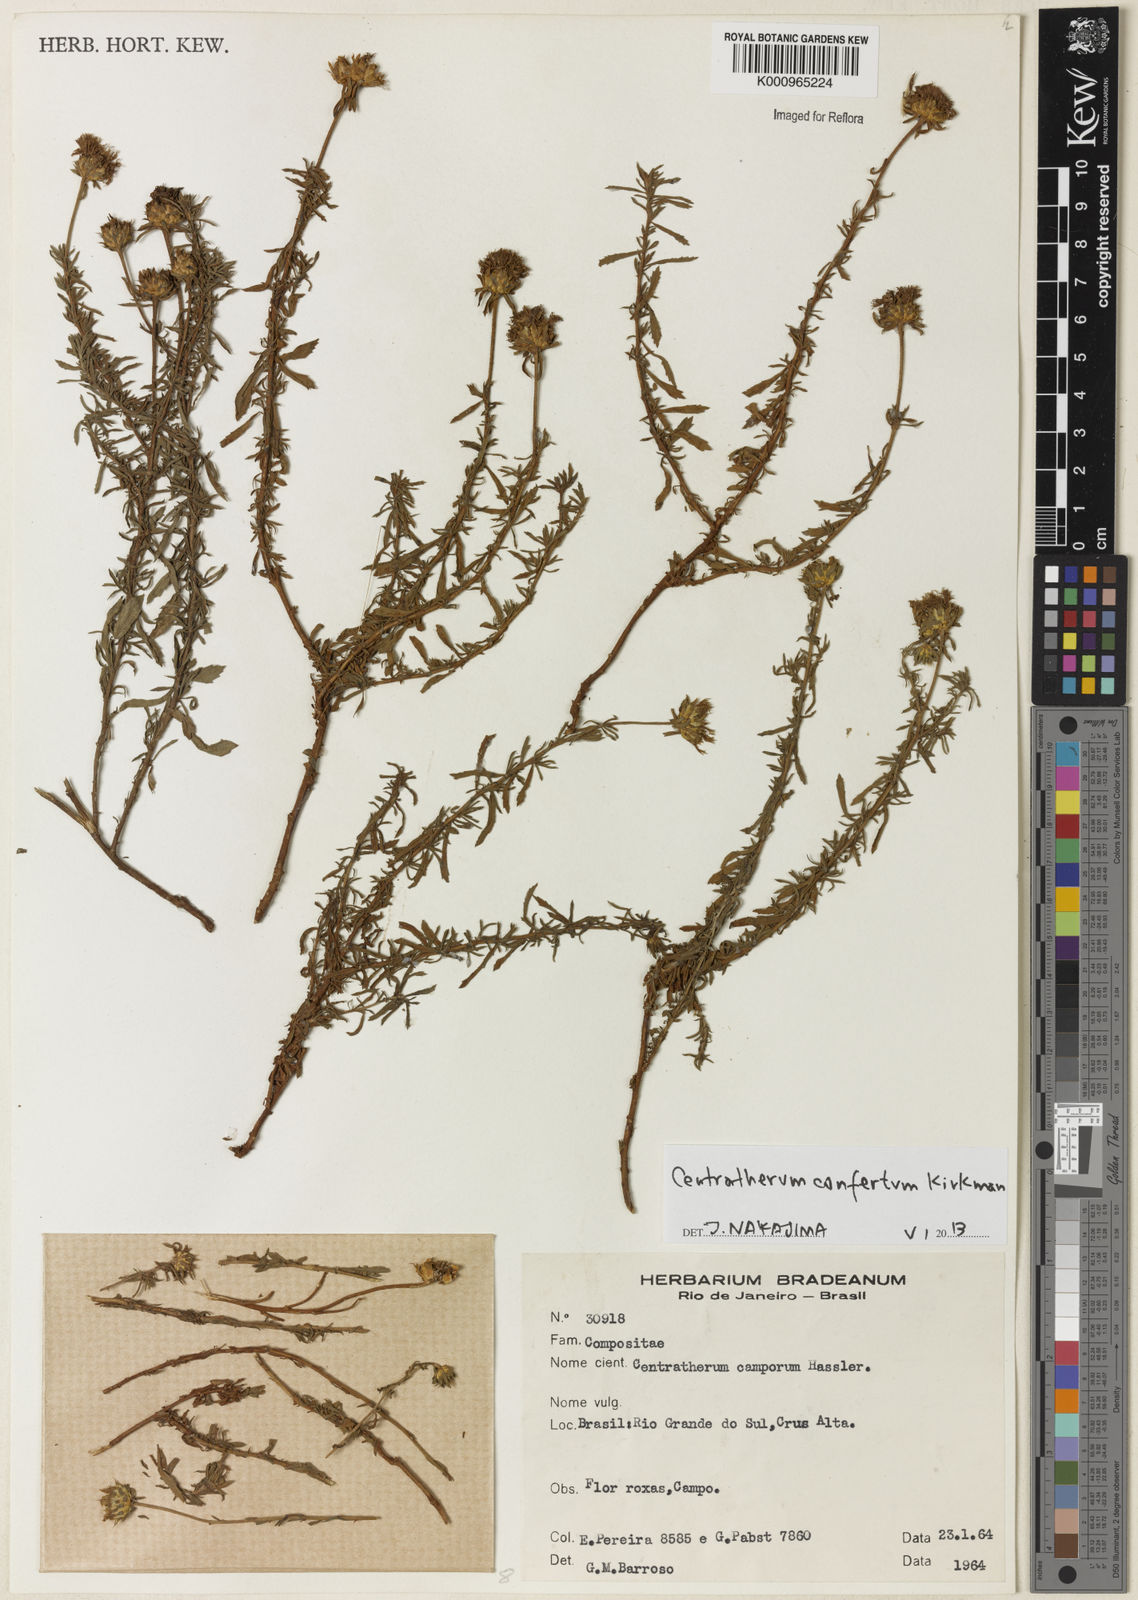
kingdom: Plantae
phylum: Tracheophyta
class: Magnoliopsida
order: Asterales
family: Asteraceae
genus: Centratherum
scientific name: Centratherum confertum
